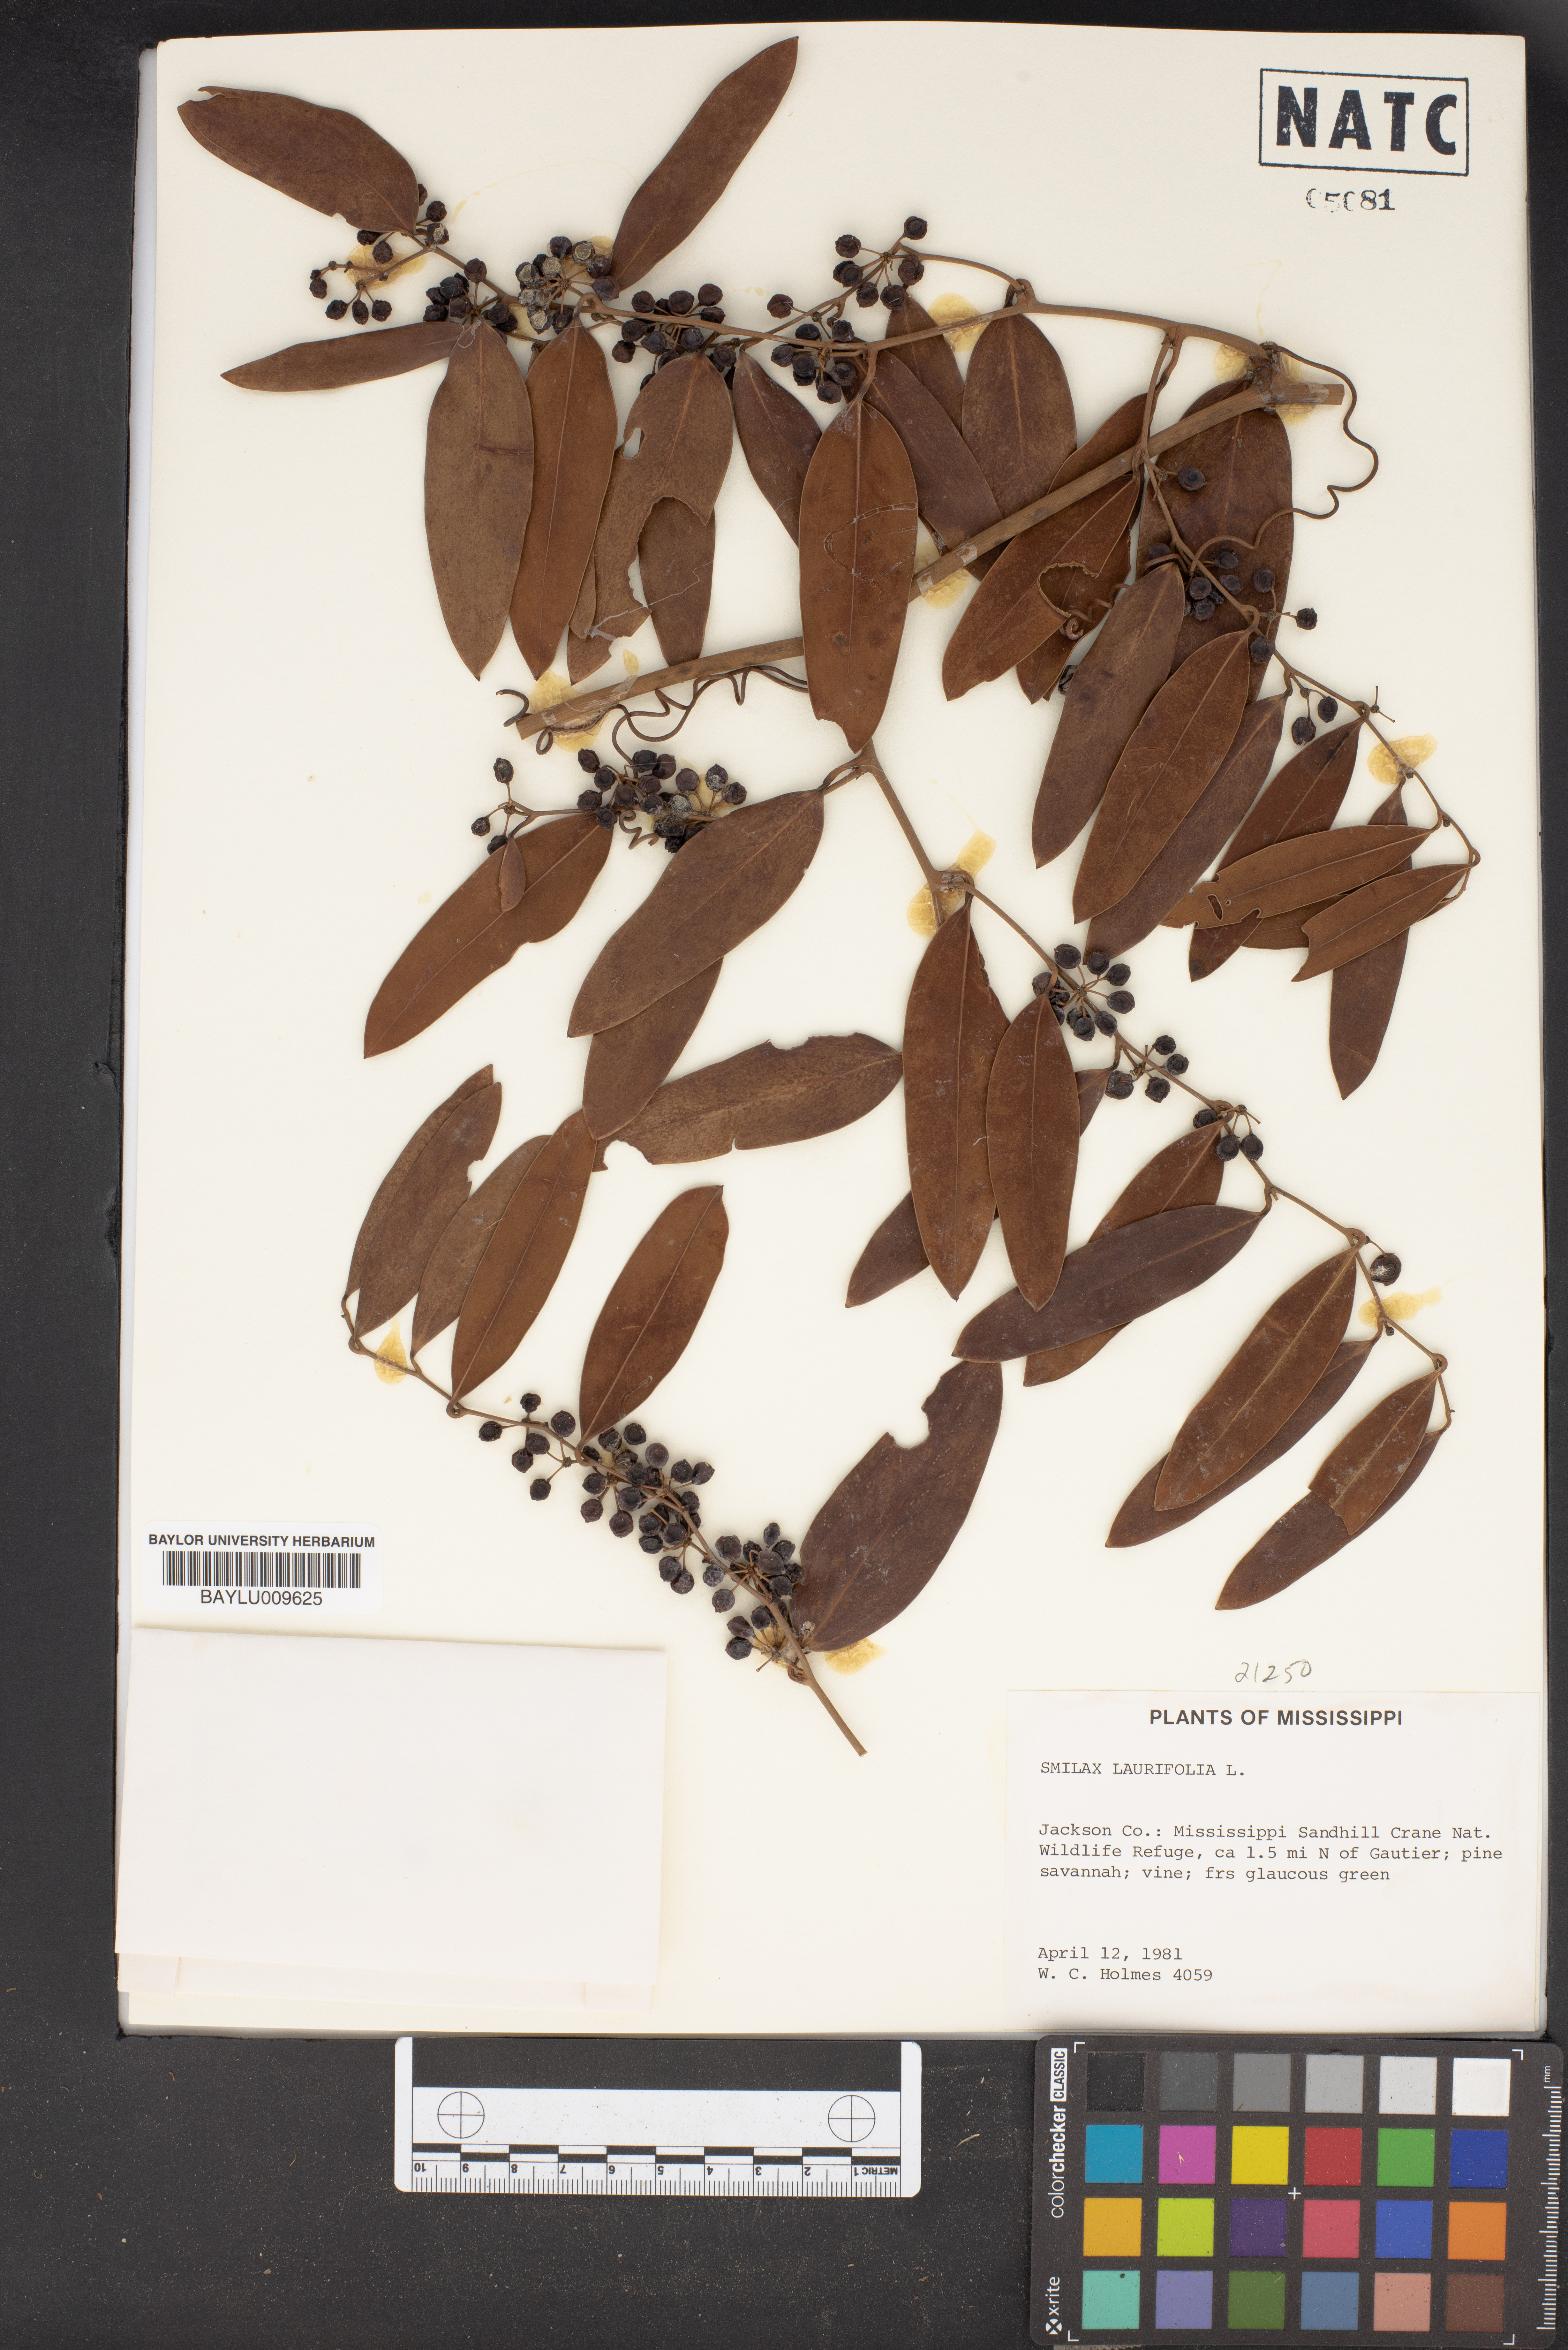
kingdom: Plantae
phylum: Tracheophyta
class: Liliopsida
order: Liliales
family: Smilacaceae
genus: Smilax
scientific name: Smilax laurifolia
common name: Bamboovine
